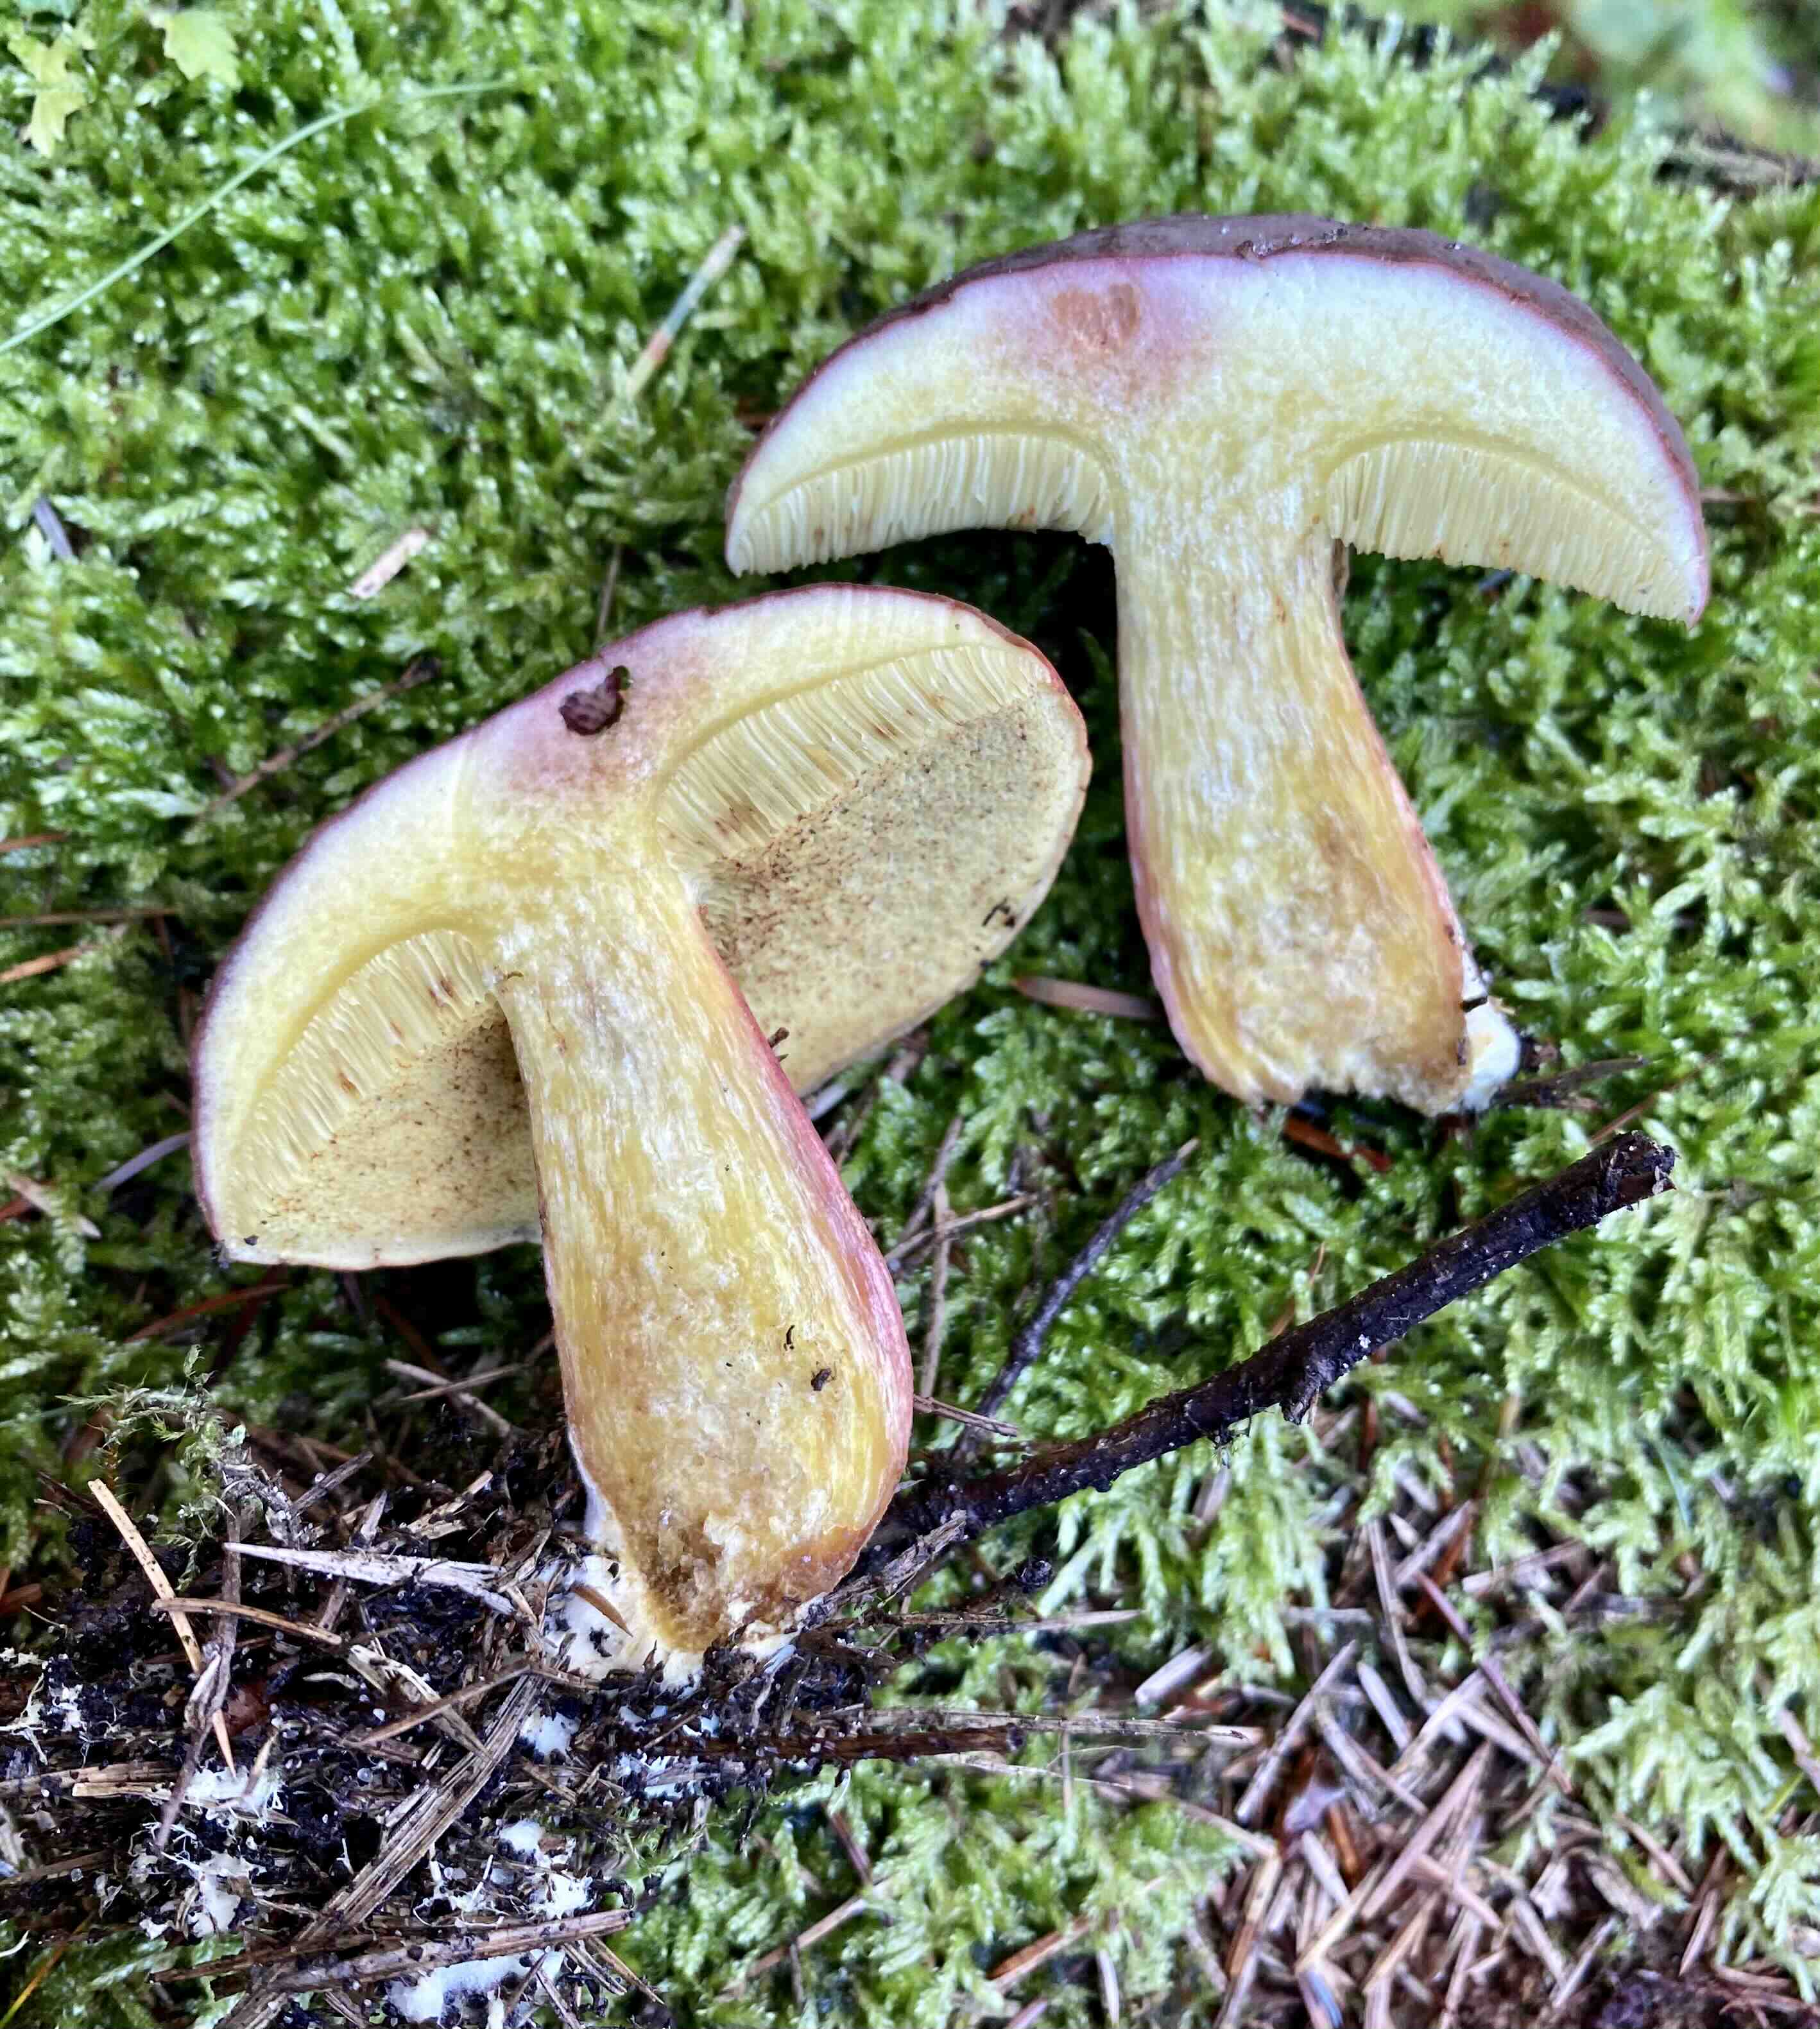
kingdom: Fungi
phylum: Basidiomycota
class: Agaricomycetes
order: Boletales
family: Boletaceae
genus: Xerocomellus
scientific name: Xerocomellus pruinatus
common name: dugget rørhat
